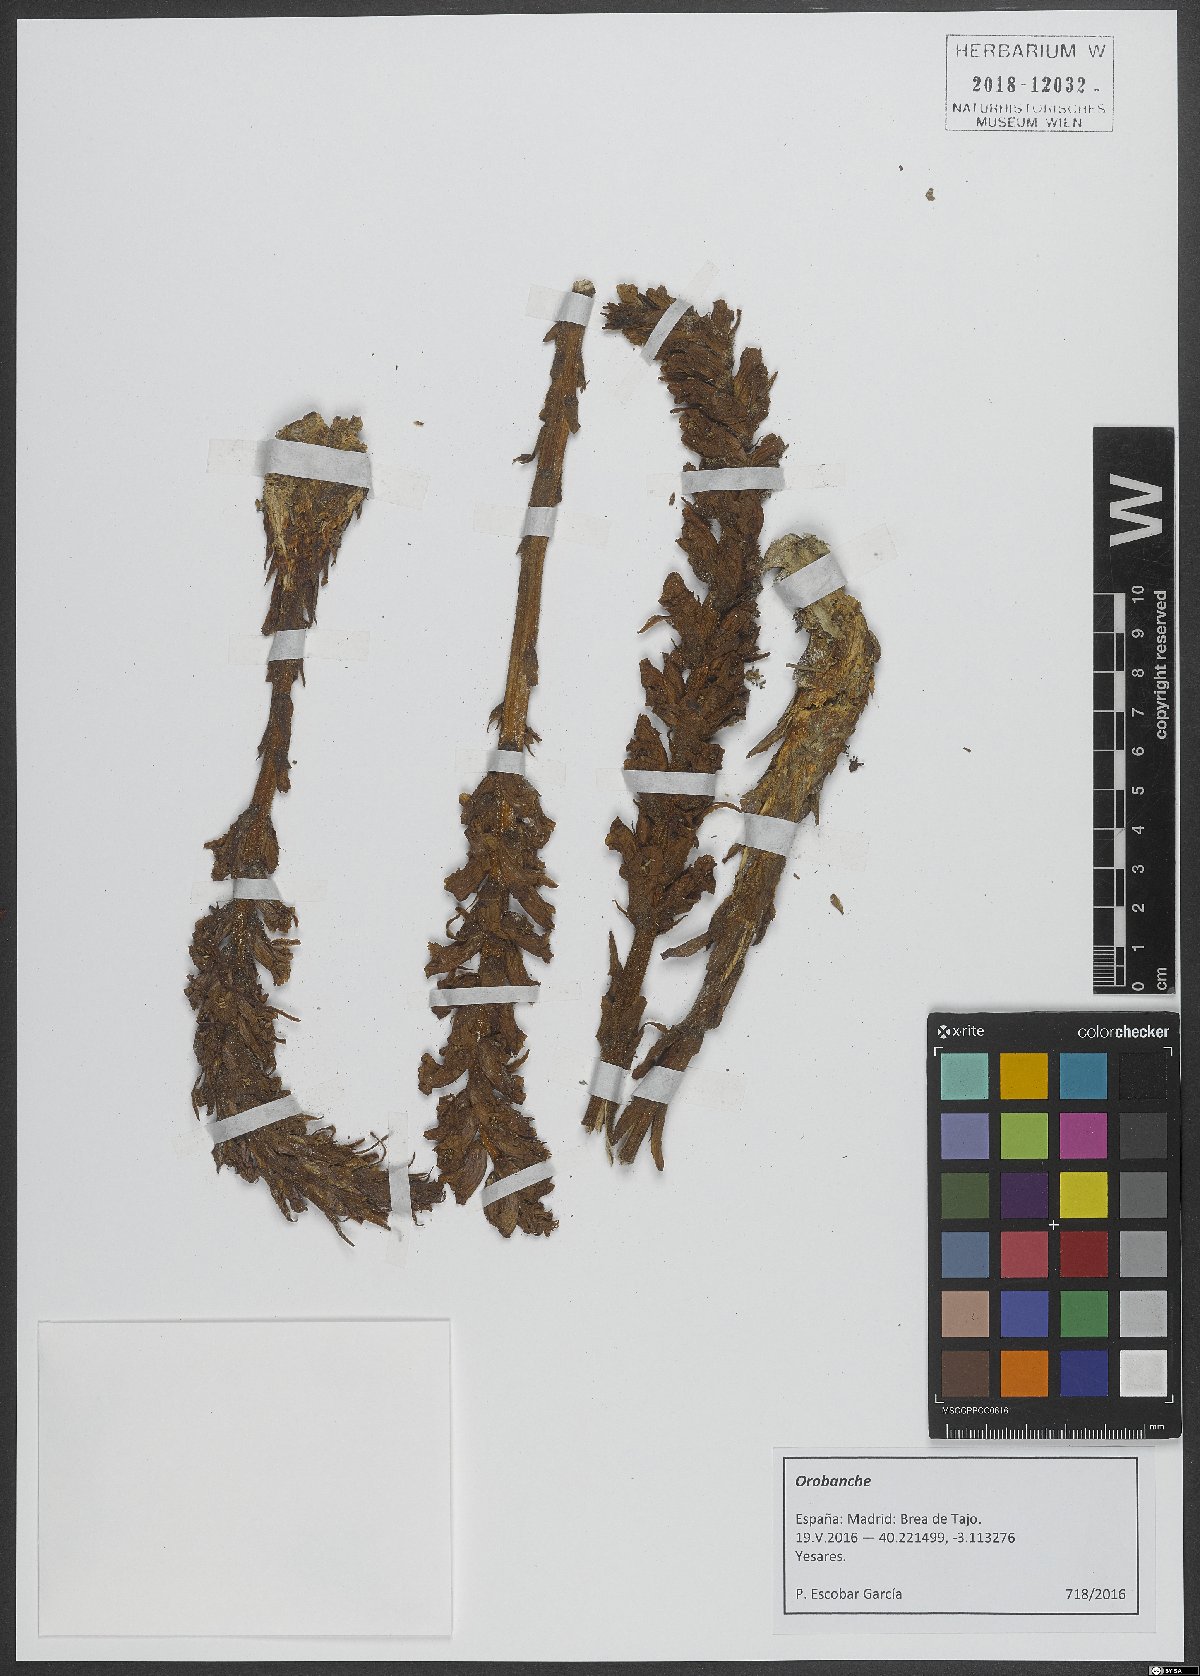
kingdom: Plantae
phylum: Tracheophyta
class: Magnoliopsida
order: Lamiales
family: Orobanchaceae
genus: Orobanche
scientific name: Orobanche
